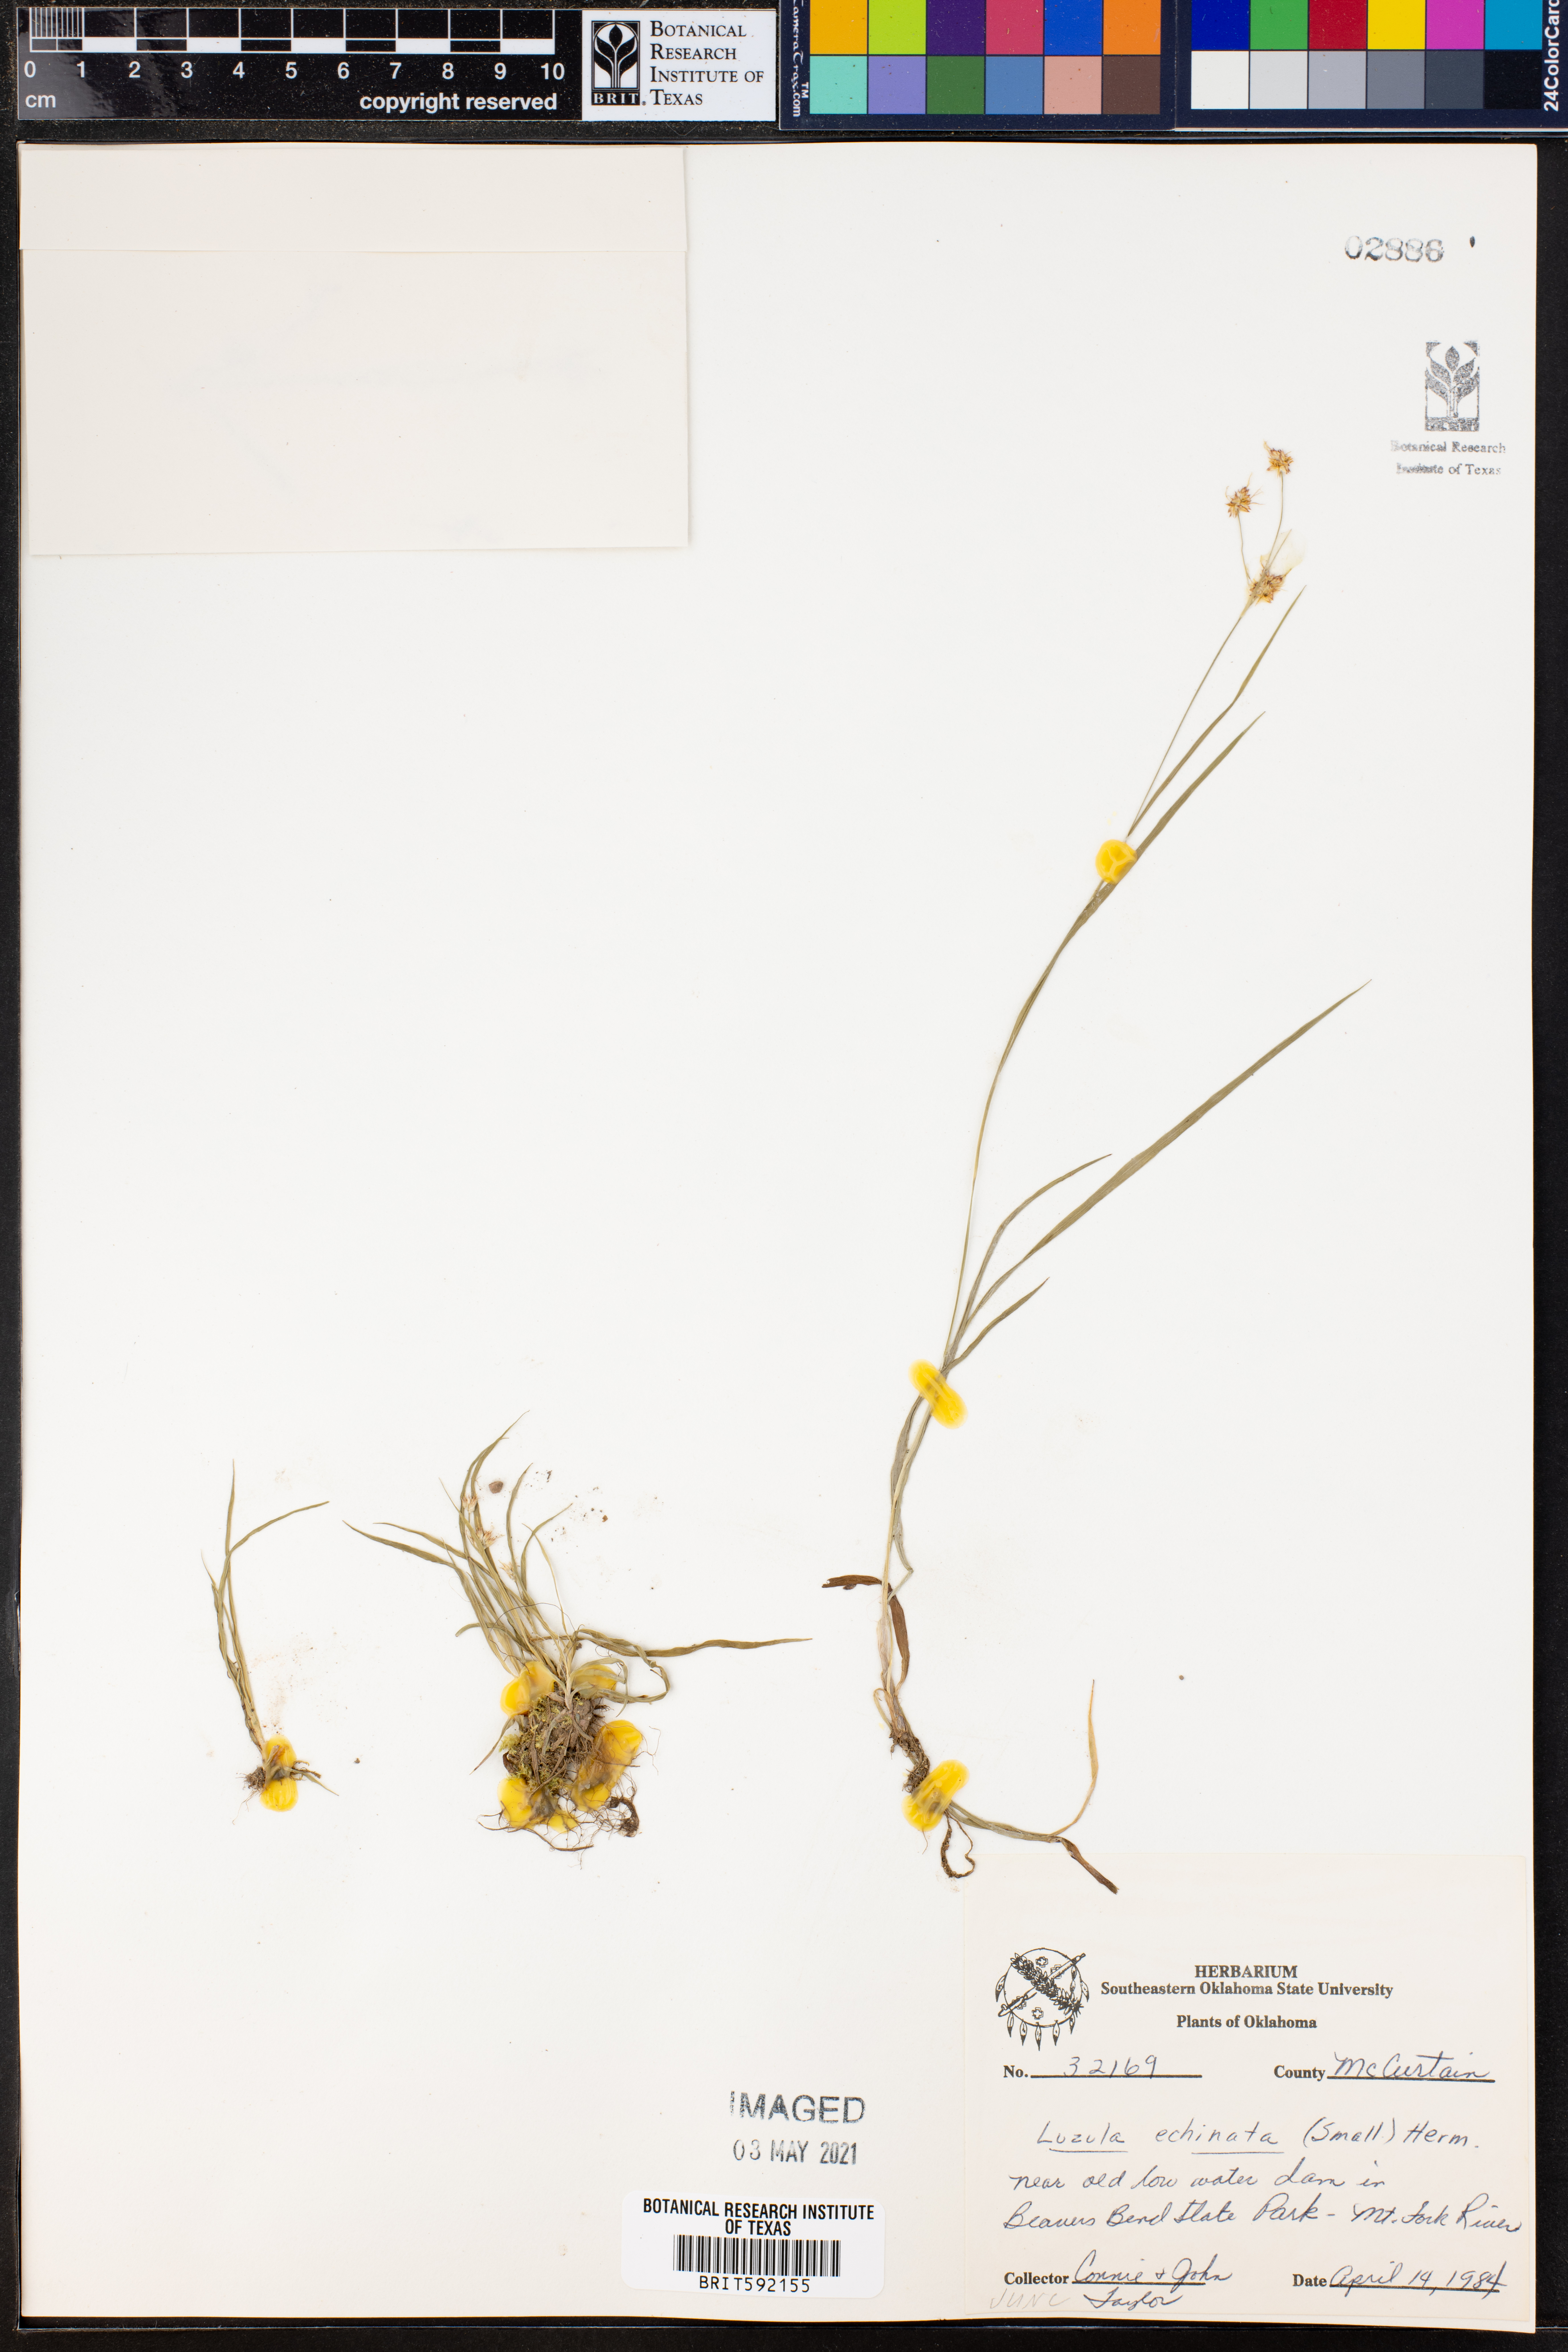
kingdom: Plantae
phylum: Tracheophyta
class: Liliopsida
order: Poales
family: Juncaceae
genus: Luzula
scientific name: Luzula echinata
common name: Hedgehog woodrush
